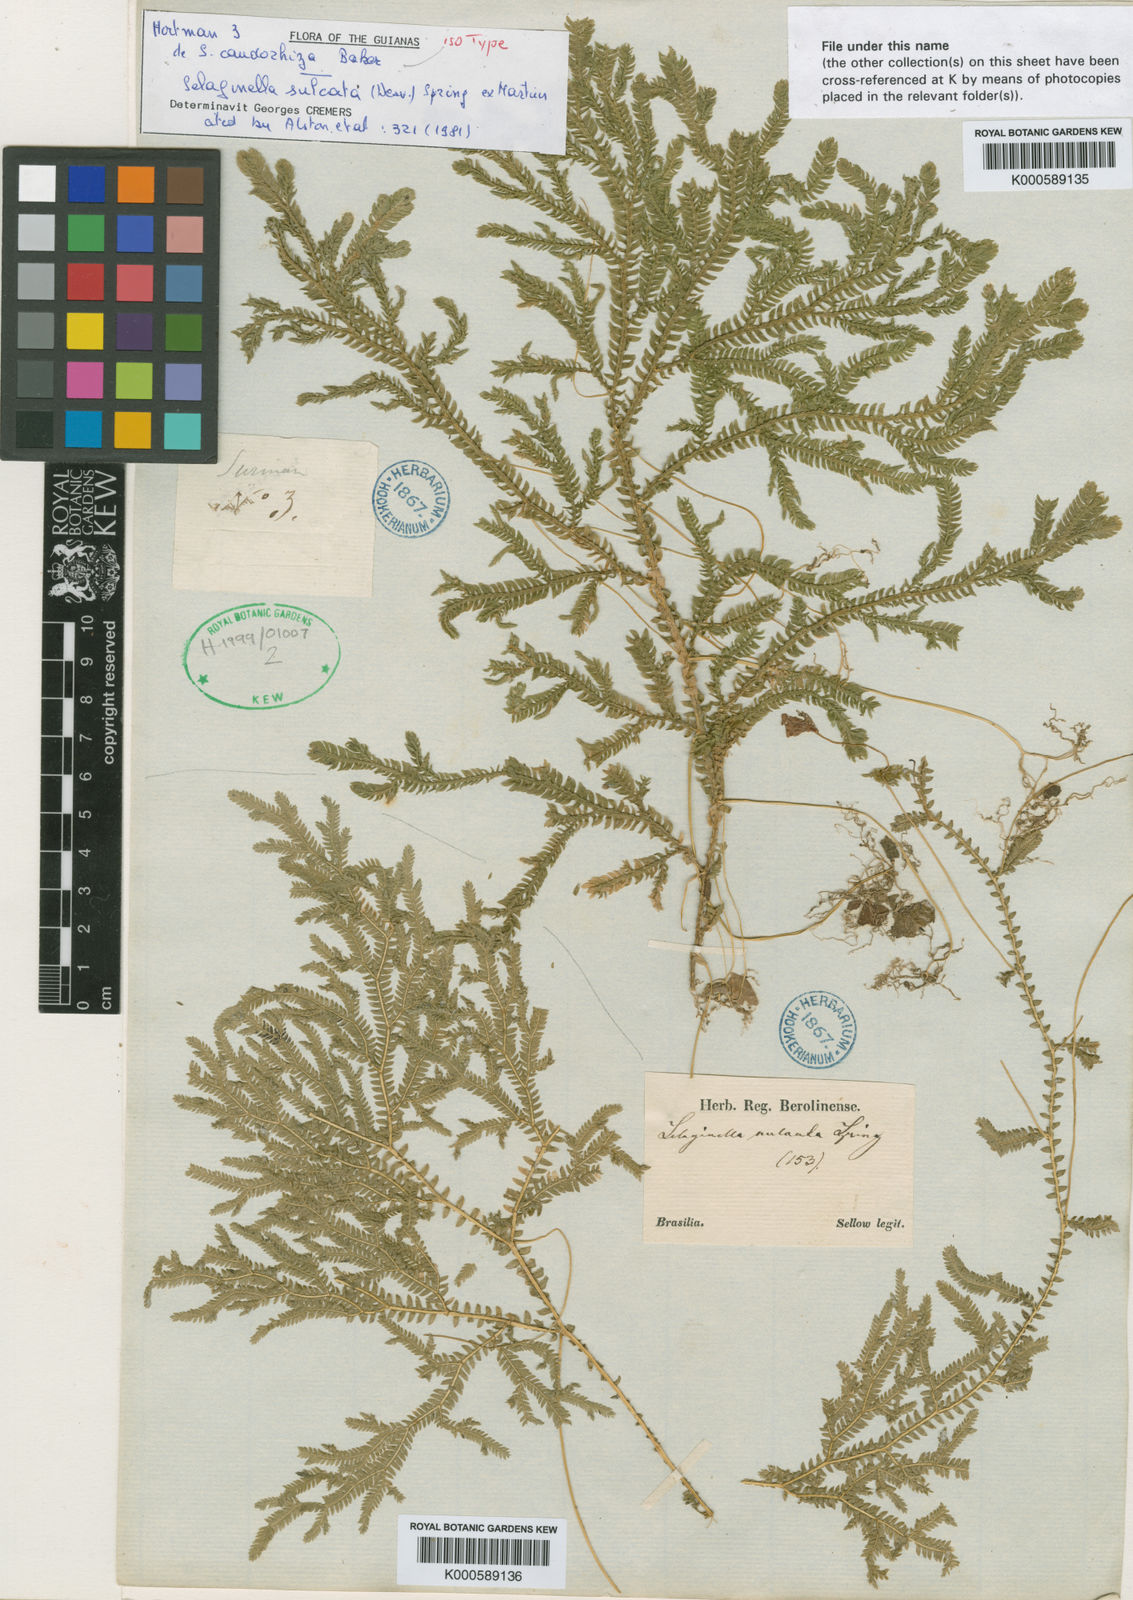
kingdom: Plantae
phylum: Tracheophyta
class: Lycopodiopsida
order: Selaginellales
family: Selaginellaceae
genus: Selaginella
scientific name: Selaginella sulcata
